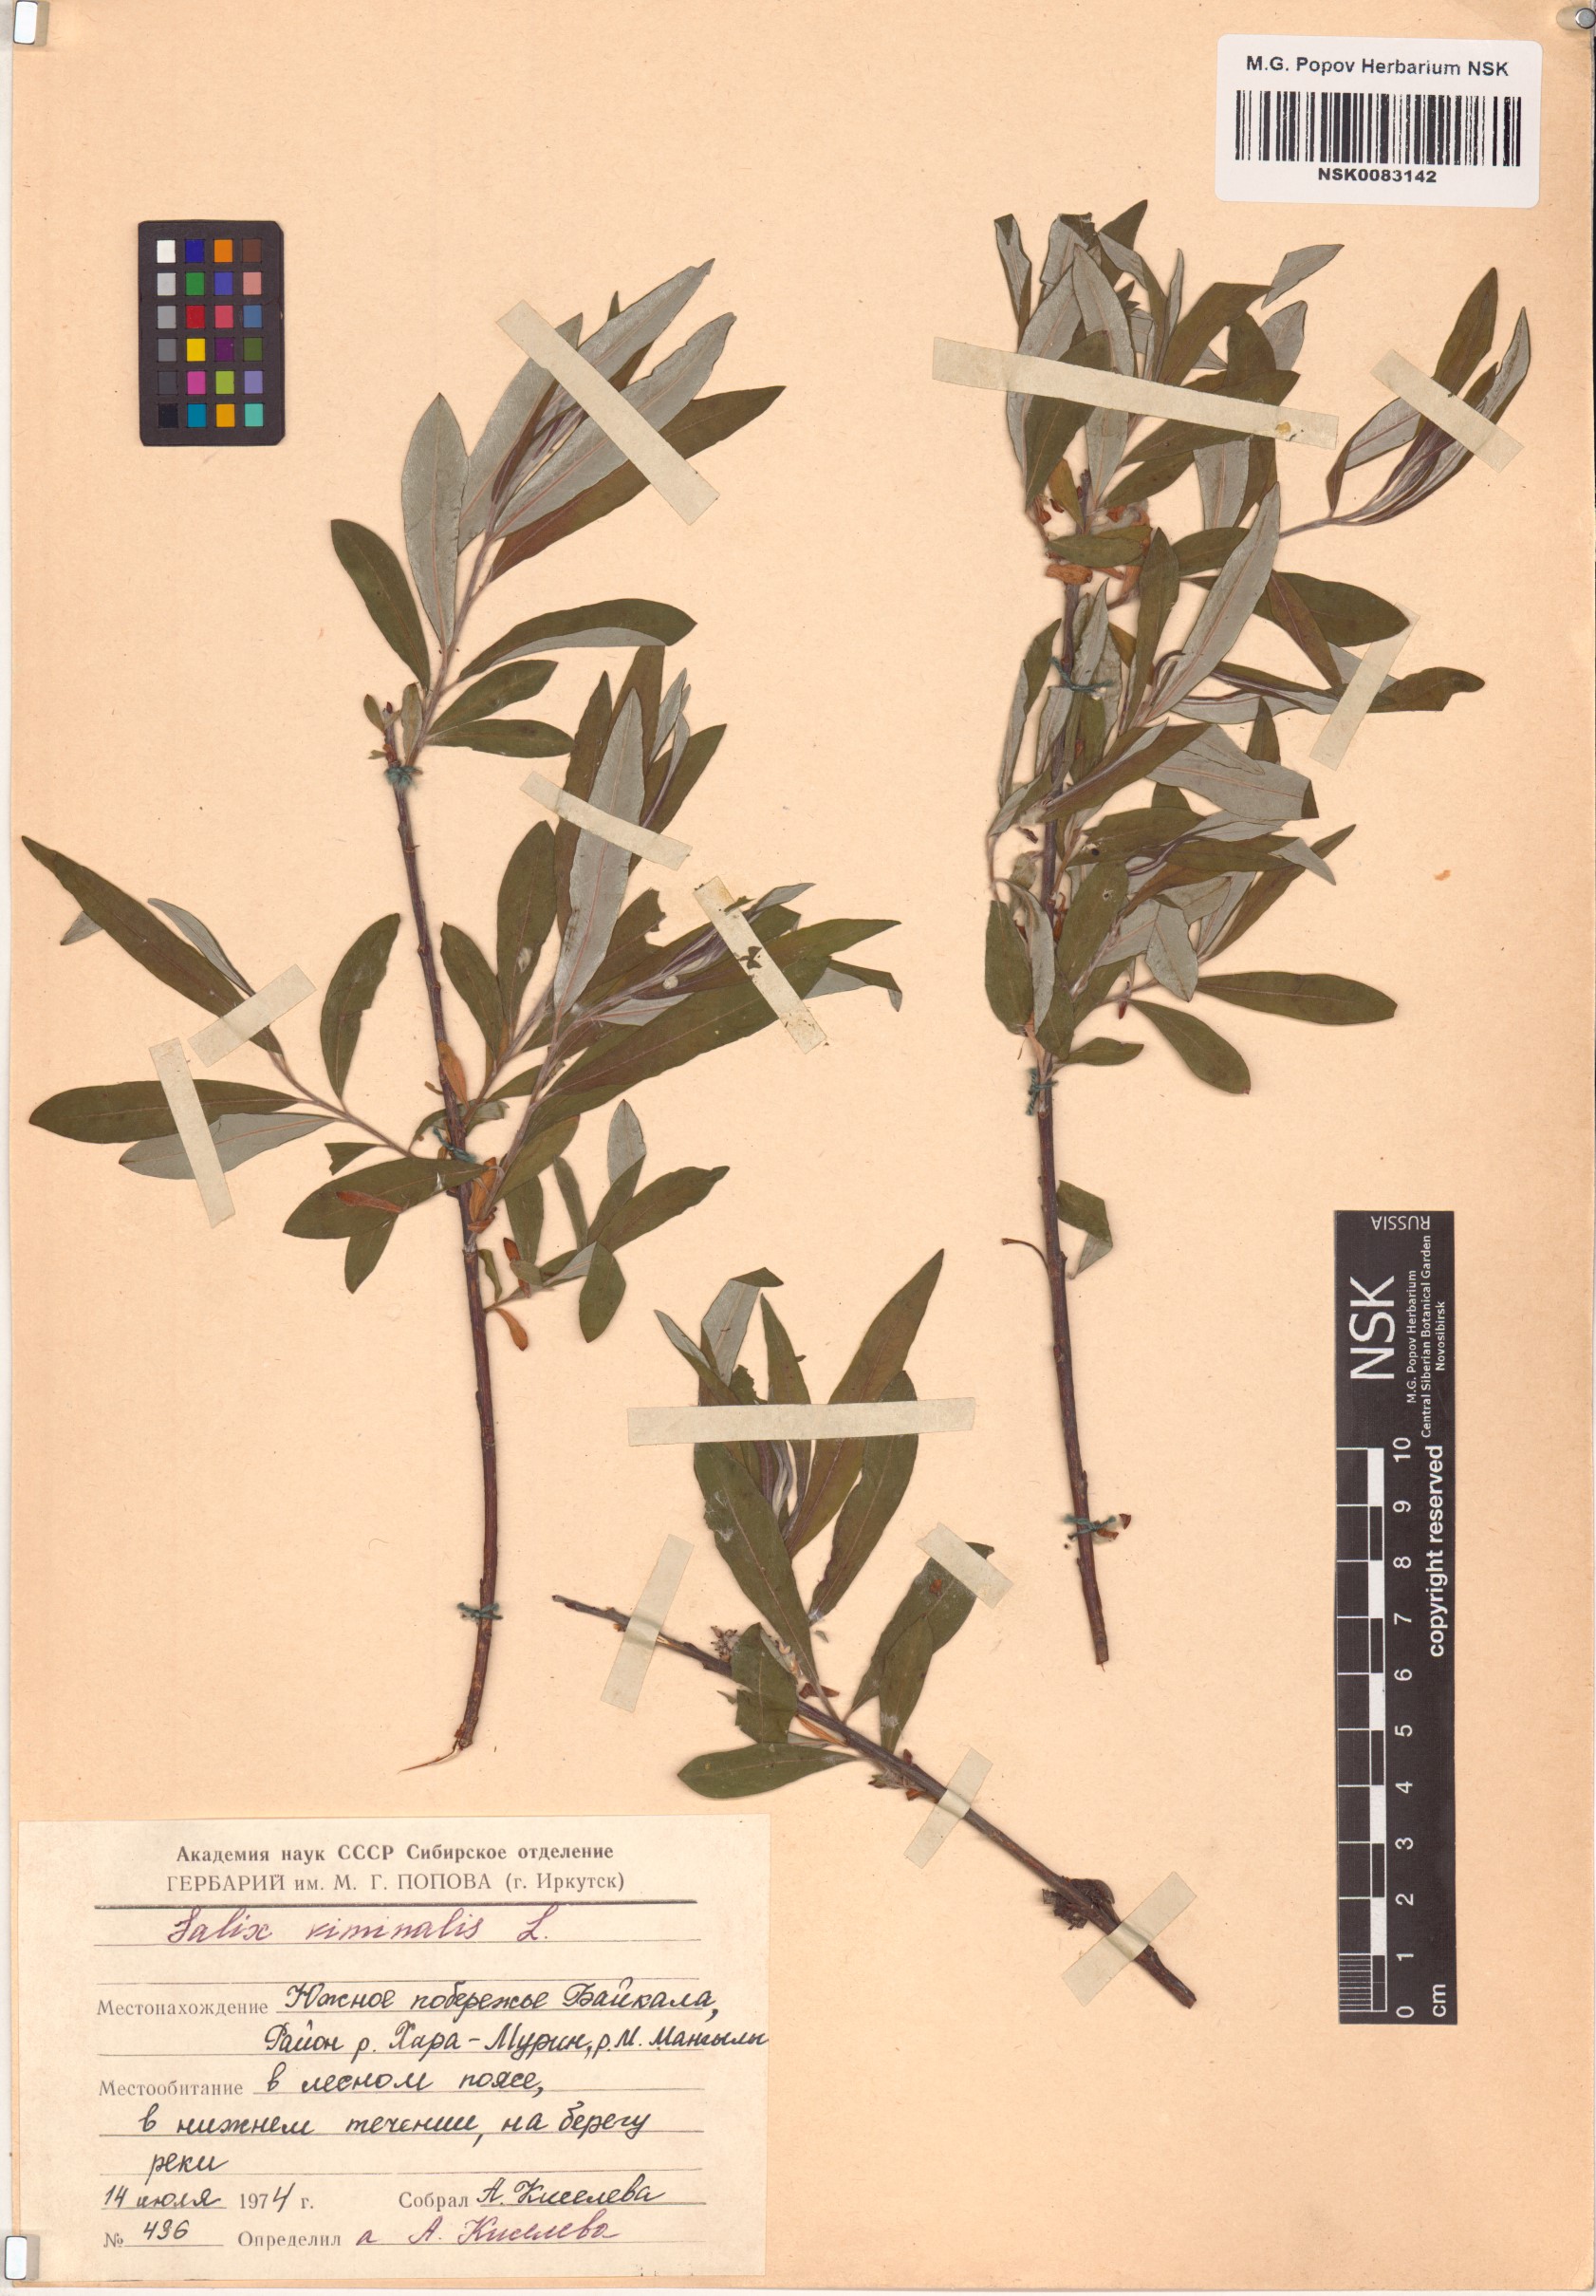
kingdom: Plantae
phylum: Tracheophyta
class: Magnoliopsida
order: Malpighiales
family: Salicaceae
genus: Salix
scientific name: Salix viminalis
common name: Osier
